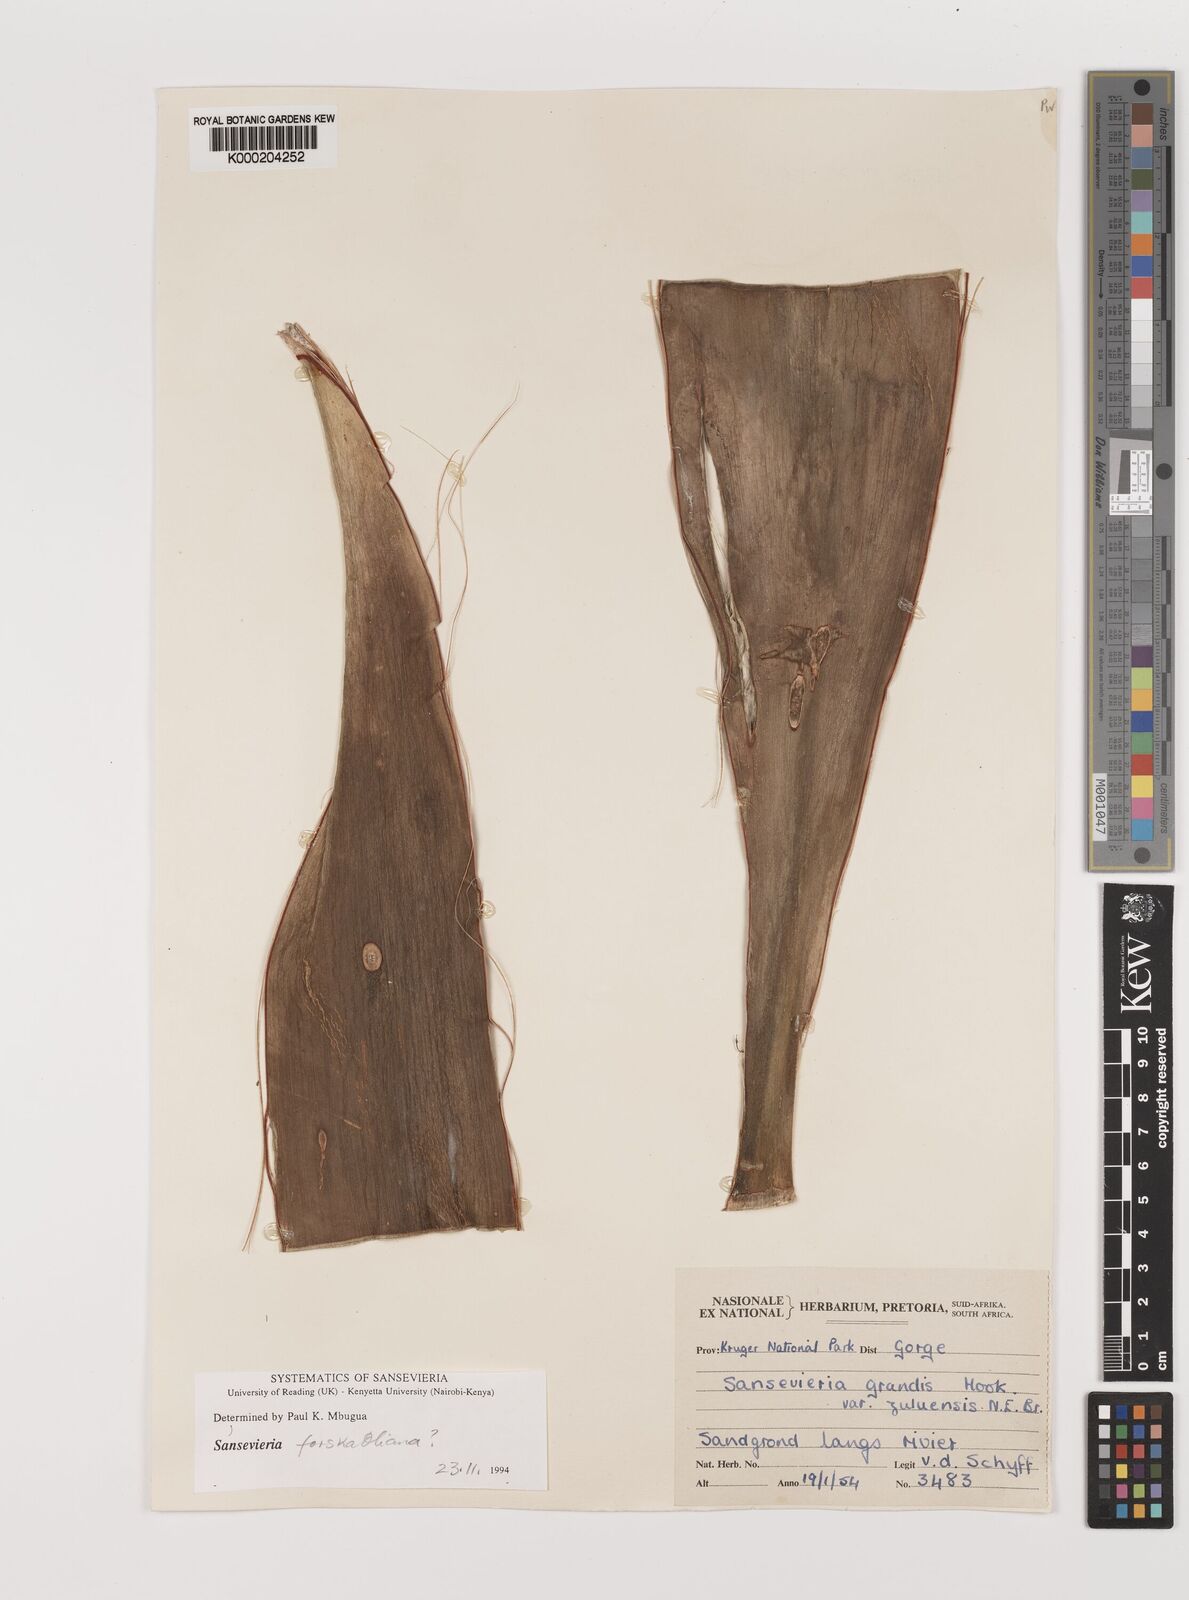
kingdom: Plantae
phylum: Tracheophyta
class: Liliopsida
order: Asparagales
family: Asparagaceae
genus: Dracaena
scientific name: Dracaena hyacinthoides
